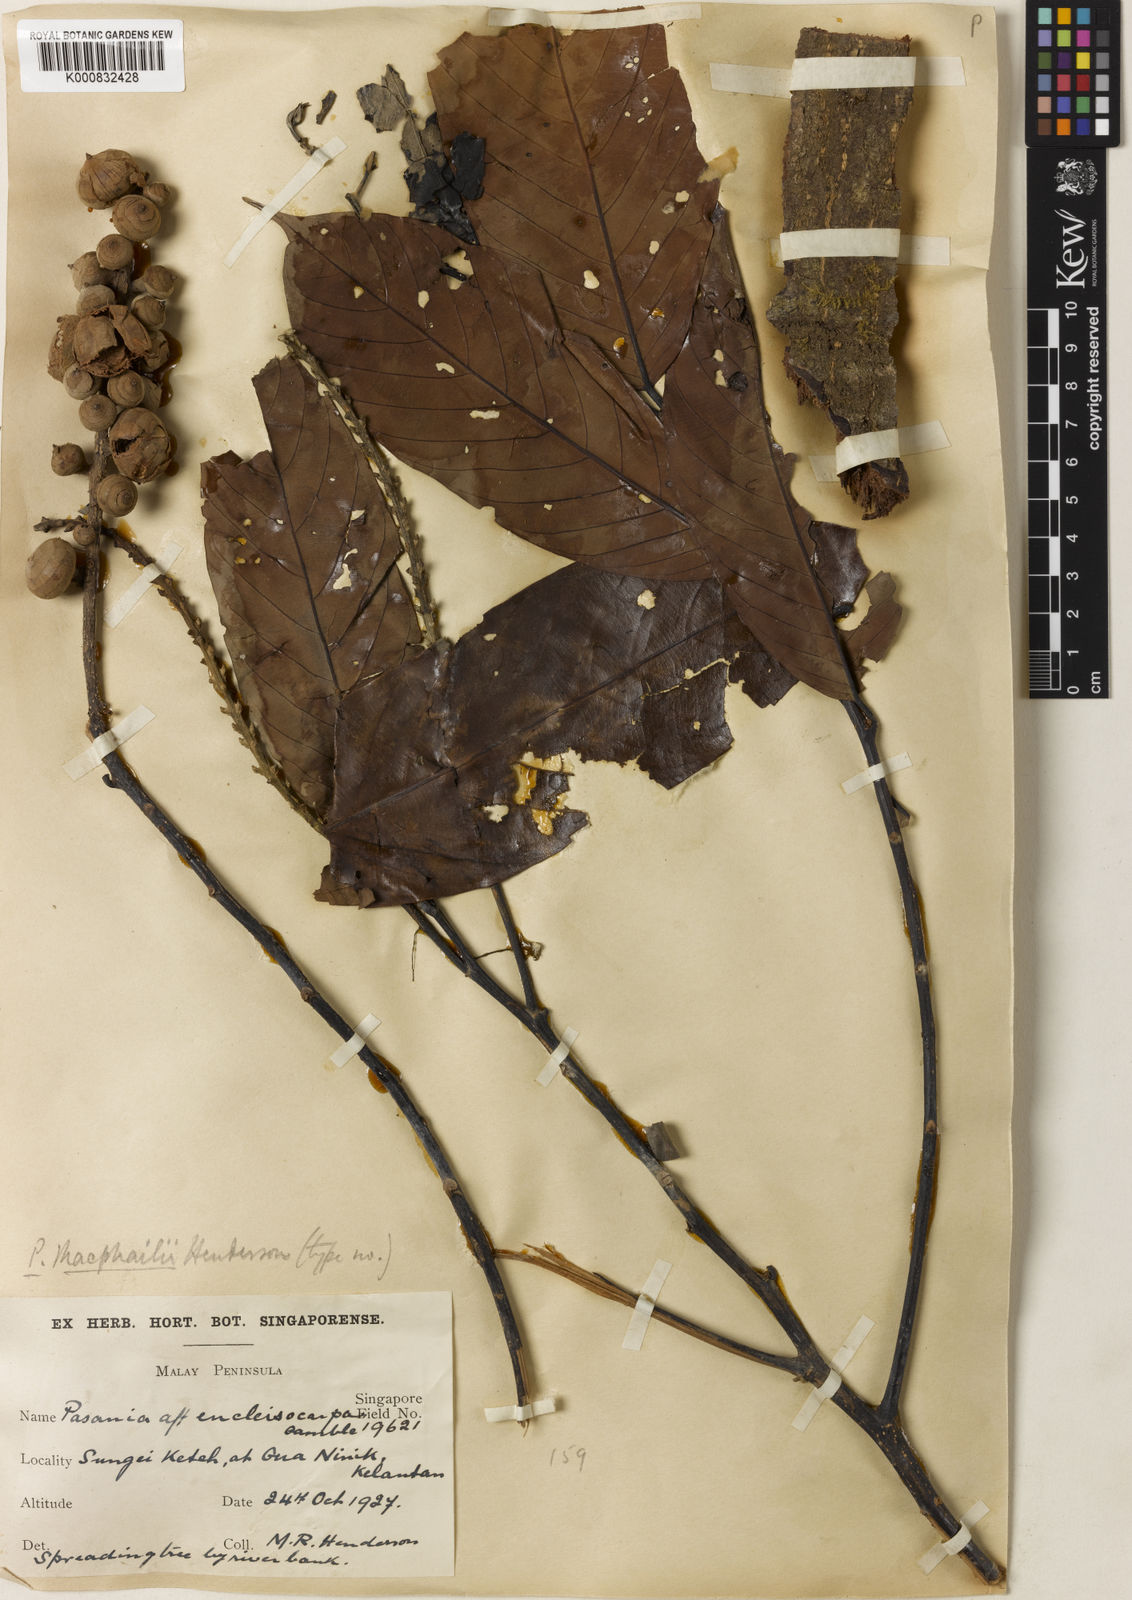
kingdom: Plantae
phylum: Tracheophyta
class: Magnoliopsida
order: Fagales
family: Fagaceae
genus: Lithocarpus
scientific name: Lithocarpus macphailii
